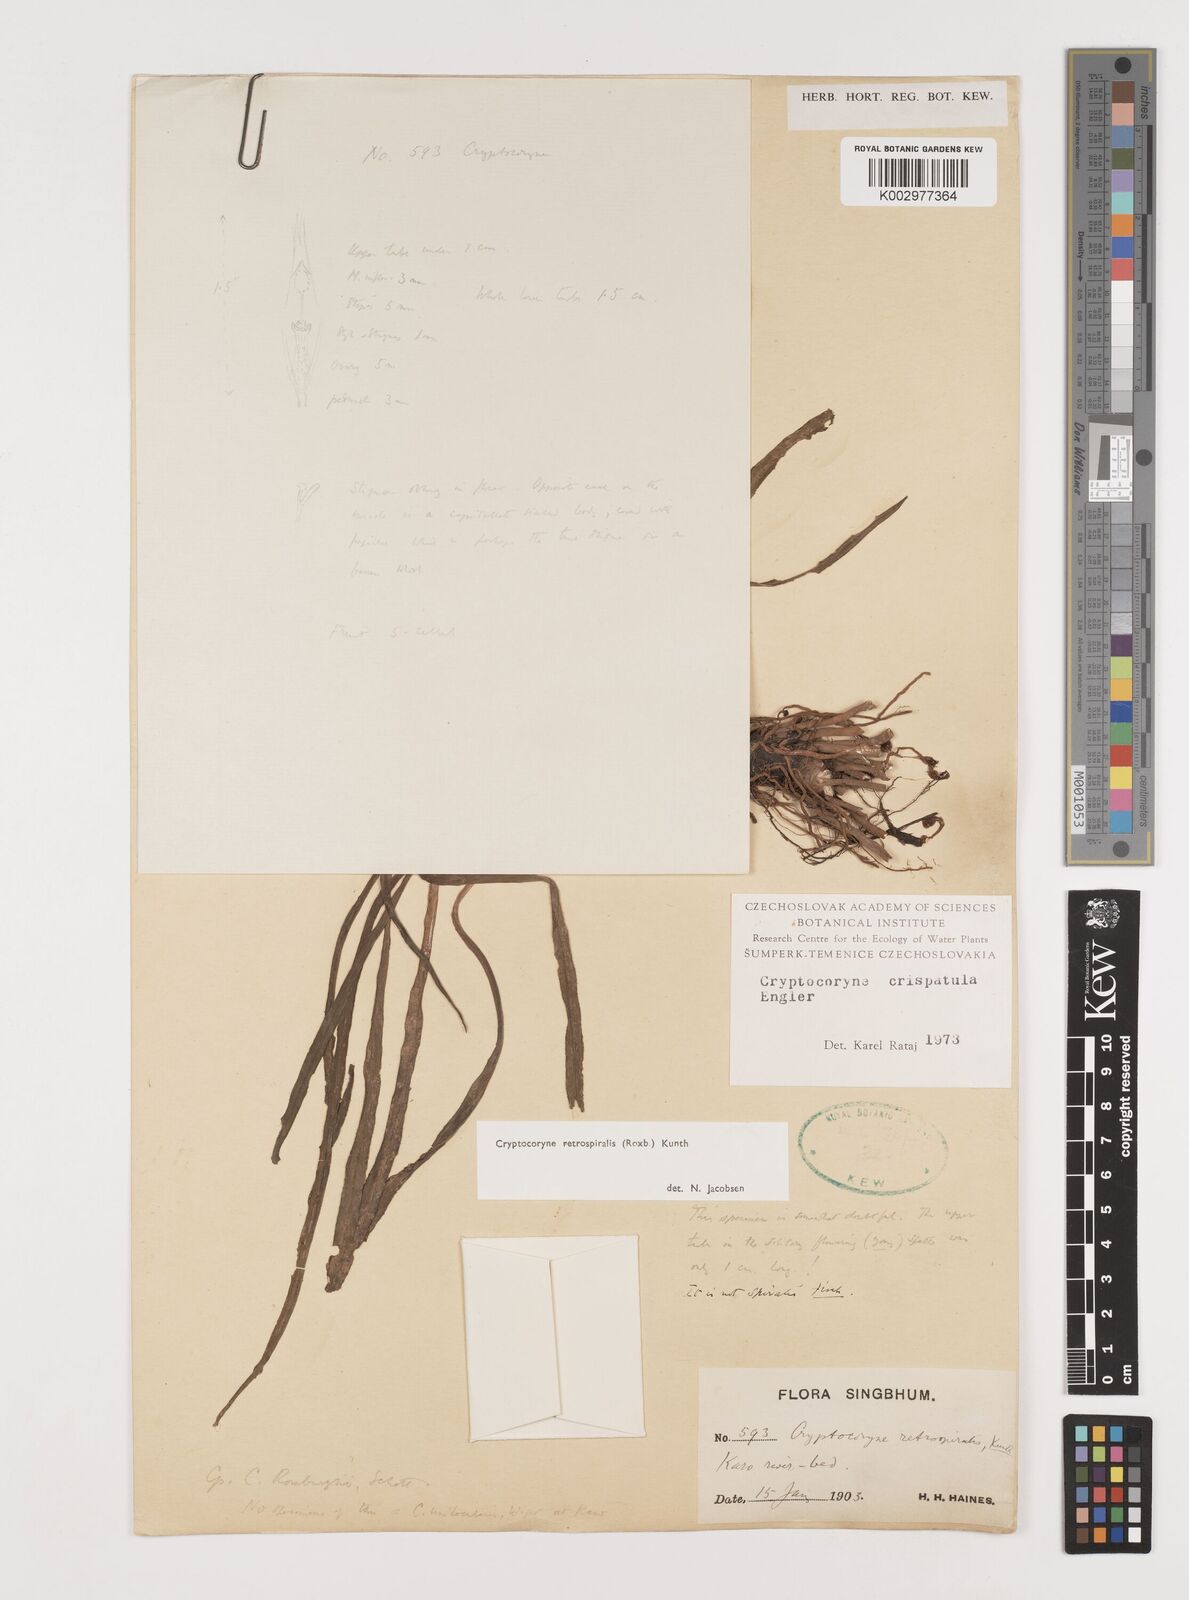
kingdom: Plantae
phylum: Tracheophyta
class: Liliopsida
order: Alismatales
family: Araceae
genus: Cryptocoryne
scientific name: Cryptocoryne retrospiralis
